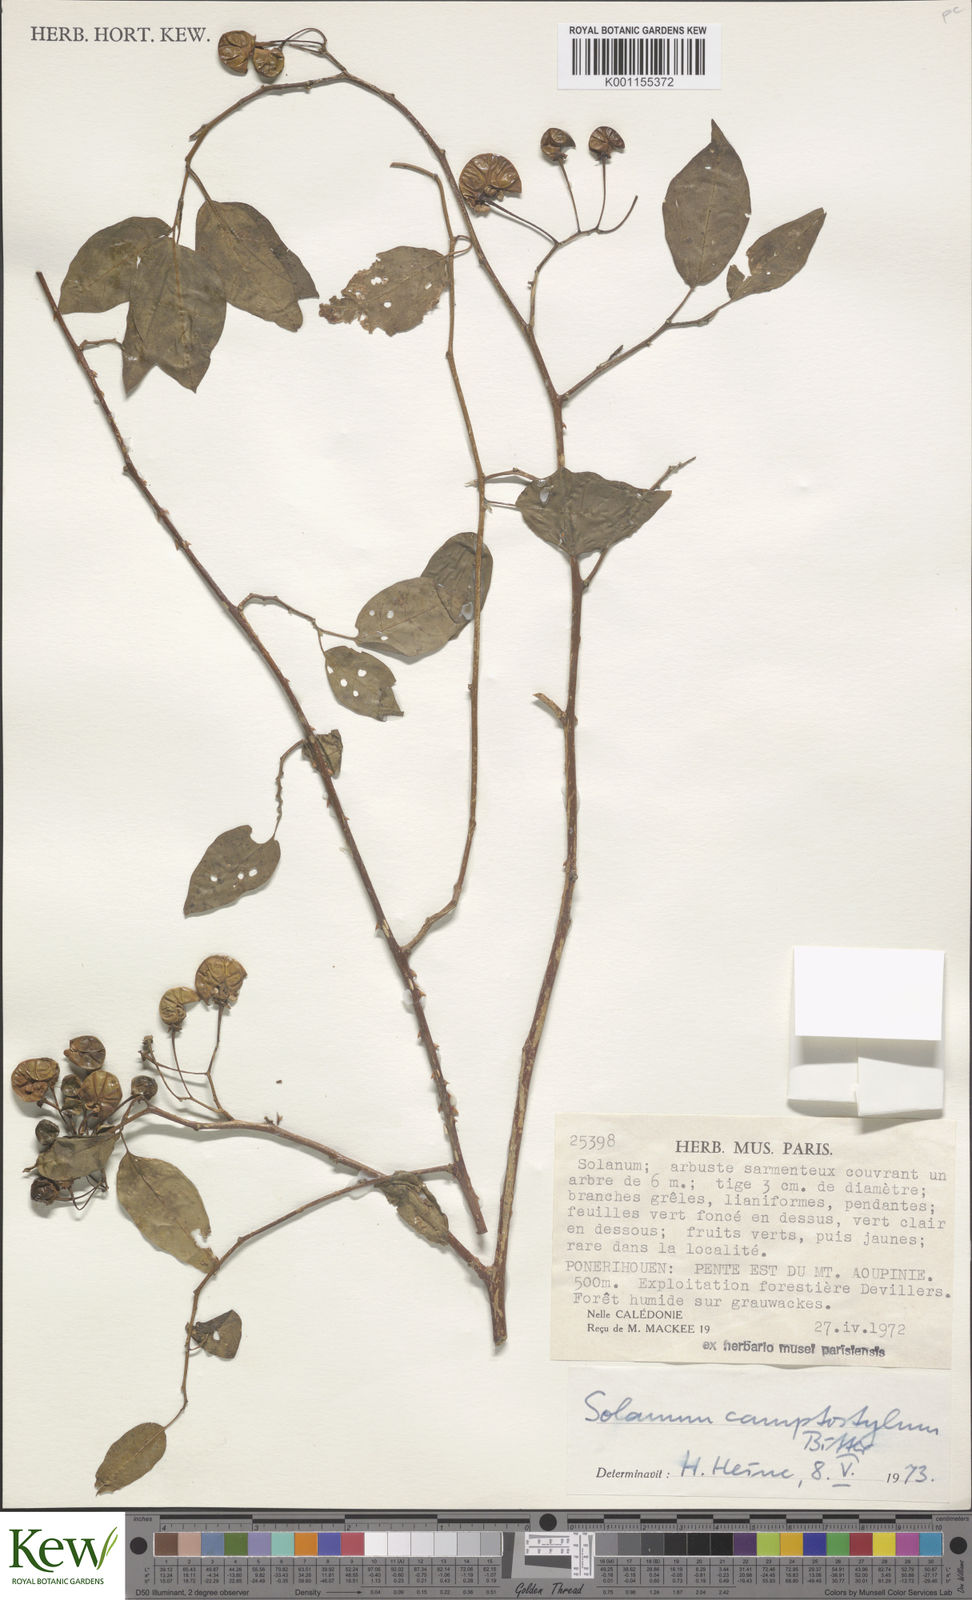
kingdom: Plantae
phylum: Tracheophyta
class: Magnoliopsida
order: Solanales
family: Solanaceae
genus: Solanum
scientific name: Solanum camptostylum
